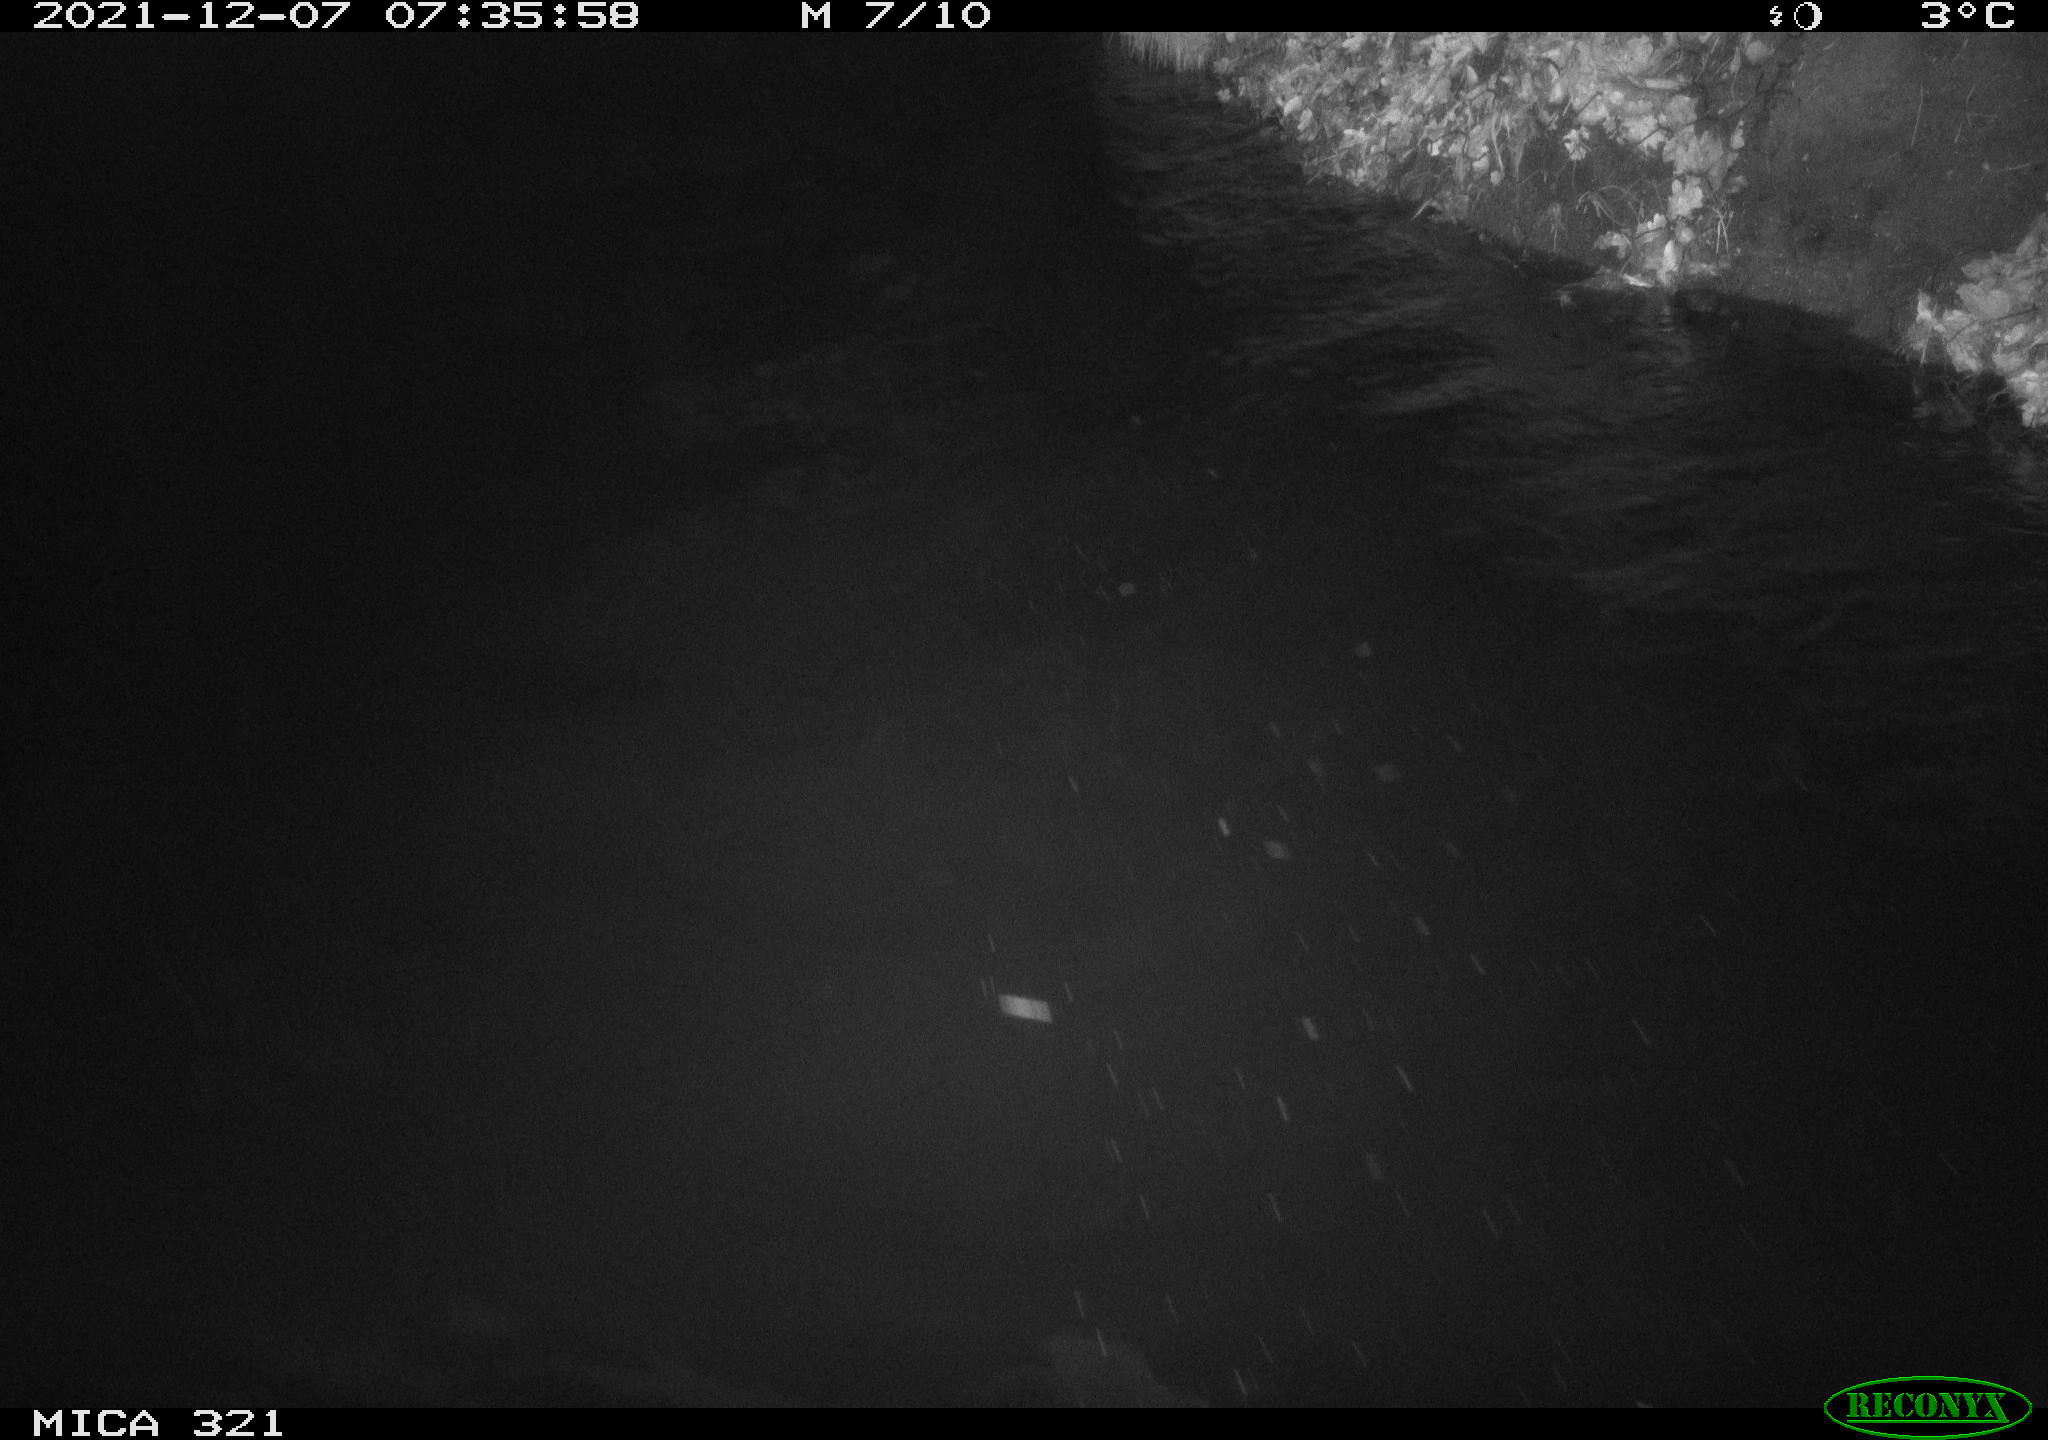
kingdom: Animalia
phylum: Chordata
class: Aves
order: Anseriformes
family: Anatidae
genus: Anas
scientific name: Anas
